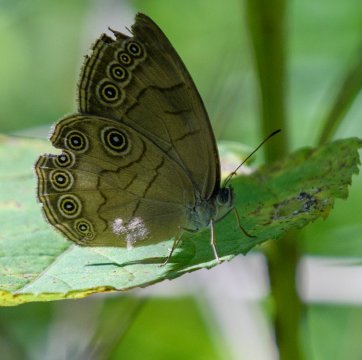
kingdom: Animalia
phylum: Arthropoda
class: Insecta
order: Lepidoptera
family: Nymphalidae
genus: Lethe
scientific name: Lethe eurydice
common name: Appalachian Eyed Brown
